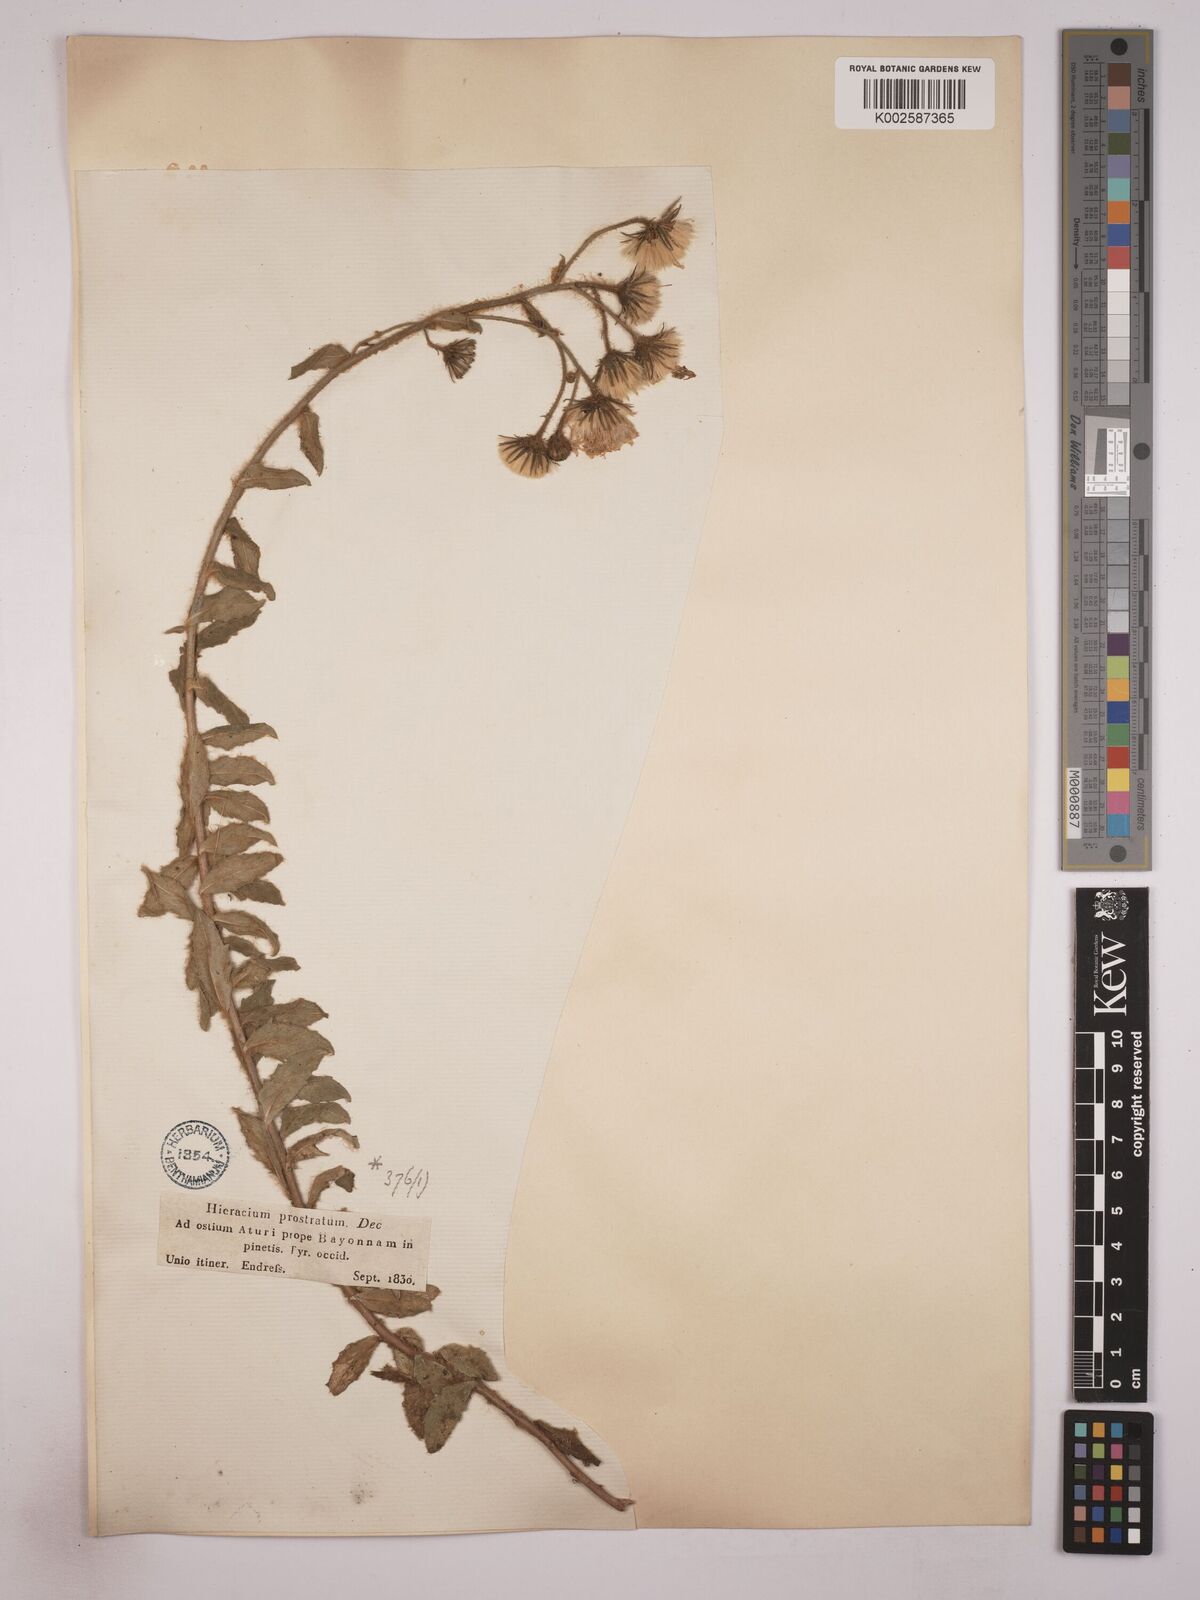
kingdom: Plantae
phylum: Tracheophyta
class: Magnoliopsida
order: Asterales
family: Asteraceae
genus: Hieracium
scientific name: Hieracium prostratum
